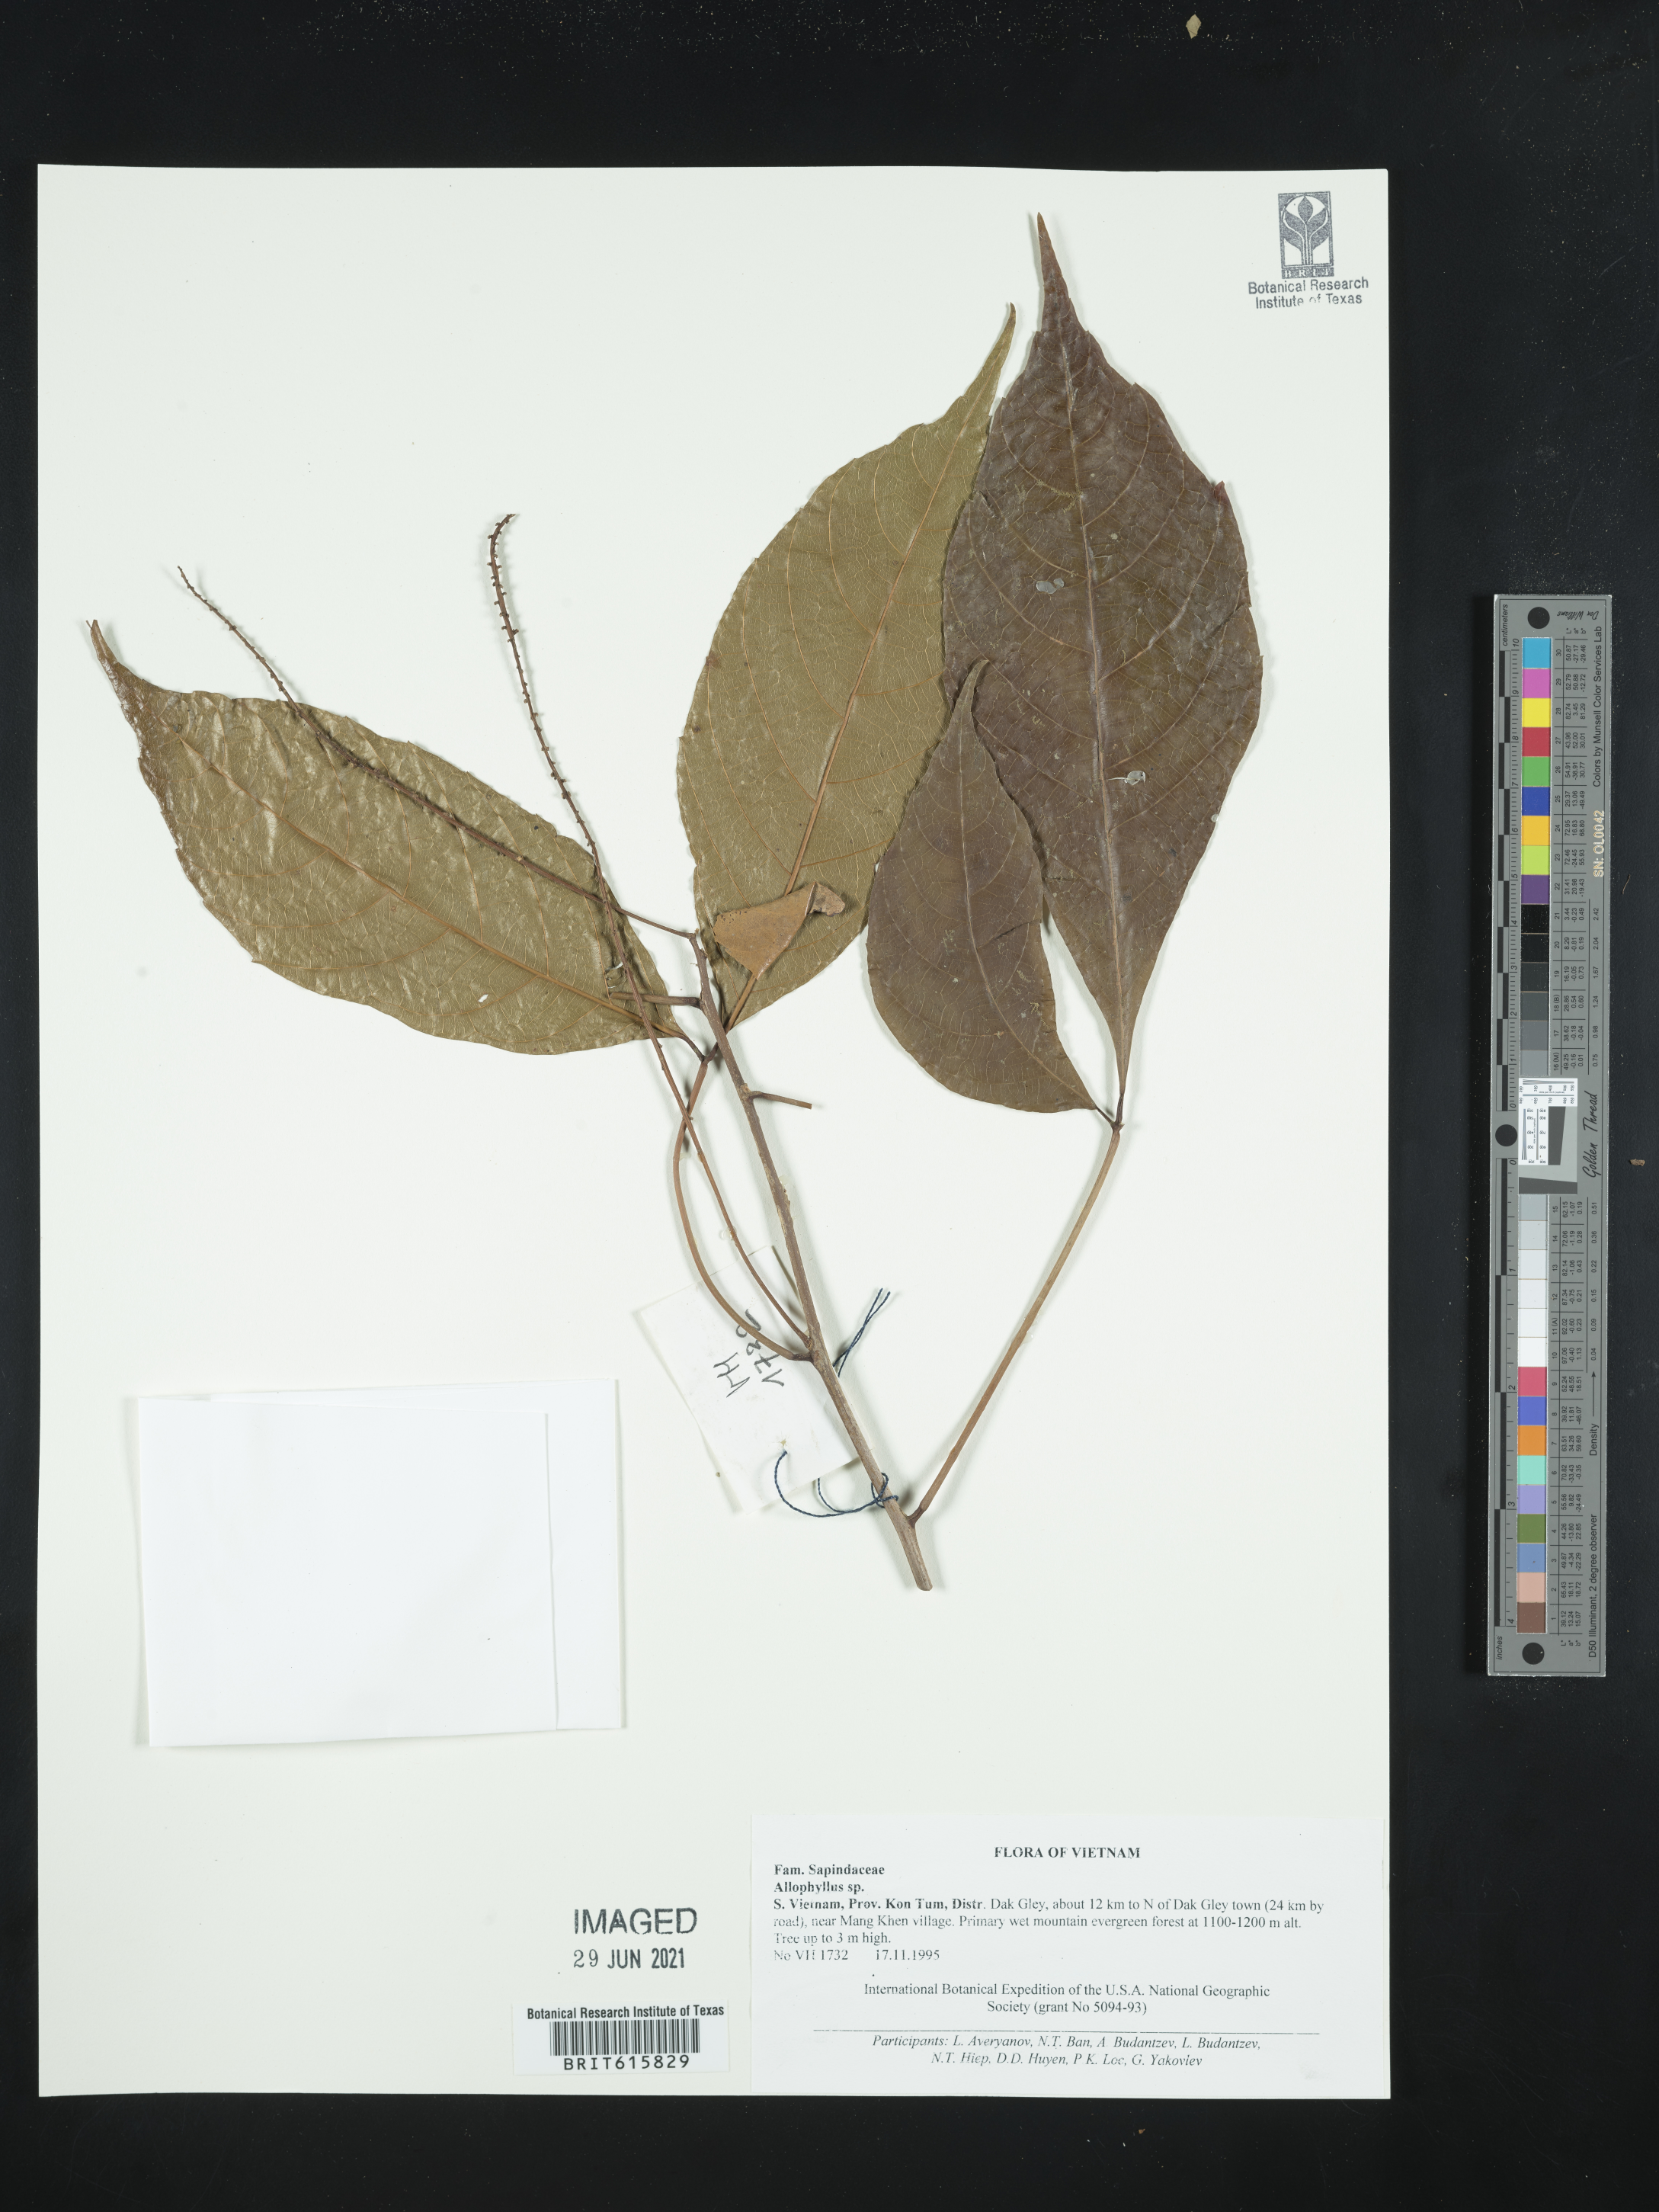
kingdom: Plantae
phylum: Tracheophyta
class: Magnoliopsida
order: Sapindales
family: Sapindaceae
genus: Allophylus
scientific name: Allophylus
